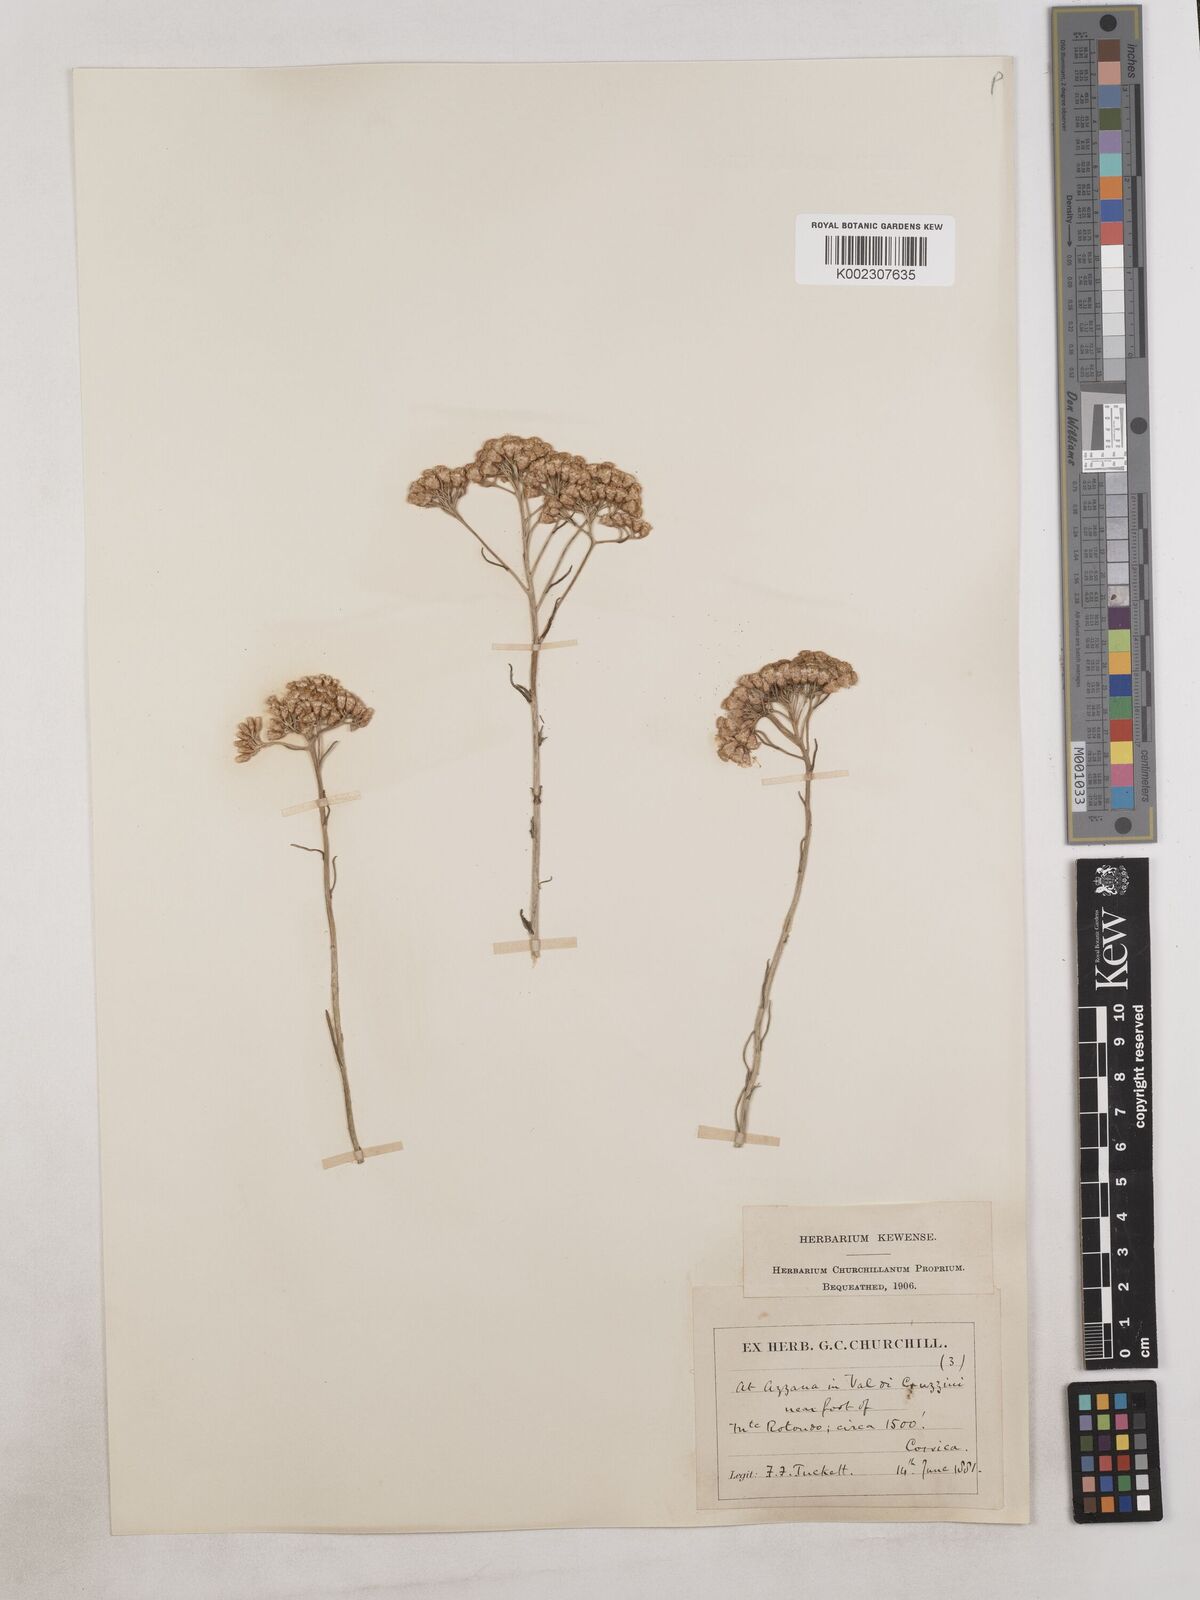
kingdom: Plantae
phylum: Tracheophyta
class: Magnoliopsida
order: Asterales
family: Asteraceae
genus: Achillea
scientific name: Achillea
